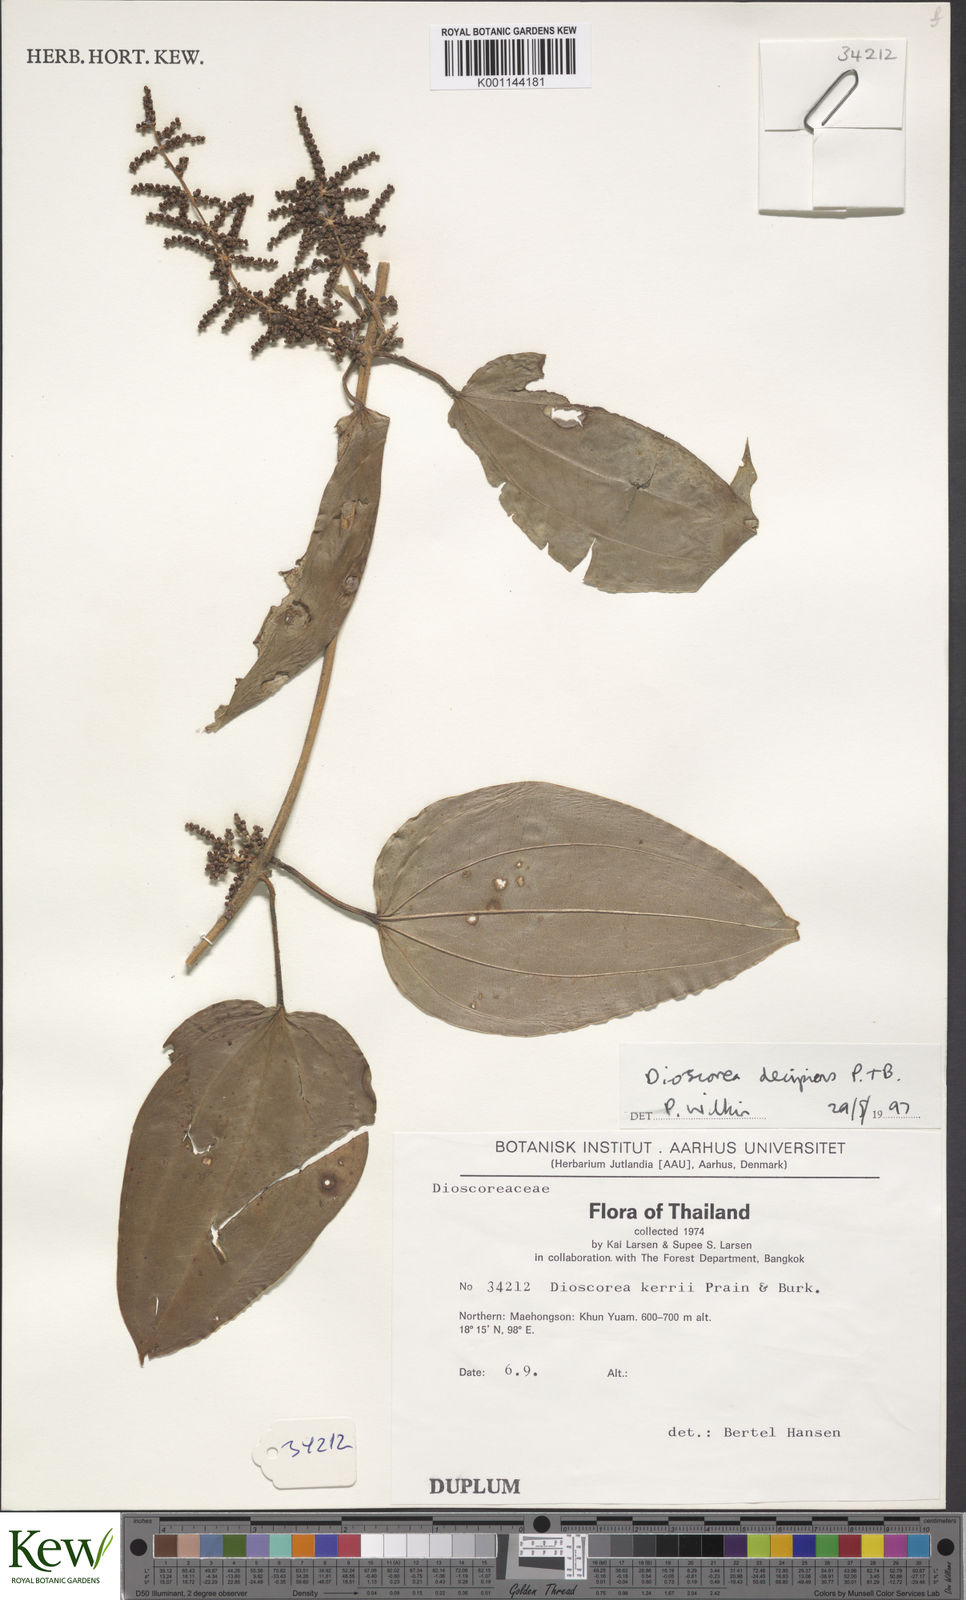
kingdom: Plantae
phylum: Tracheophyta
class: Liliopsida
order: Dioscoreales
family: Dioscoreaceae
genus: Dioscorea
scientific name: Dioscorea decipiens
